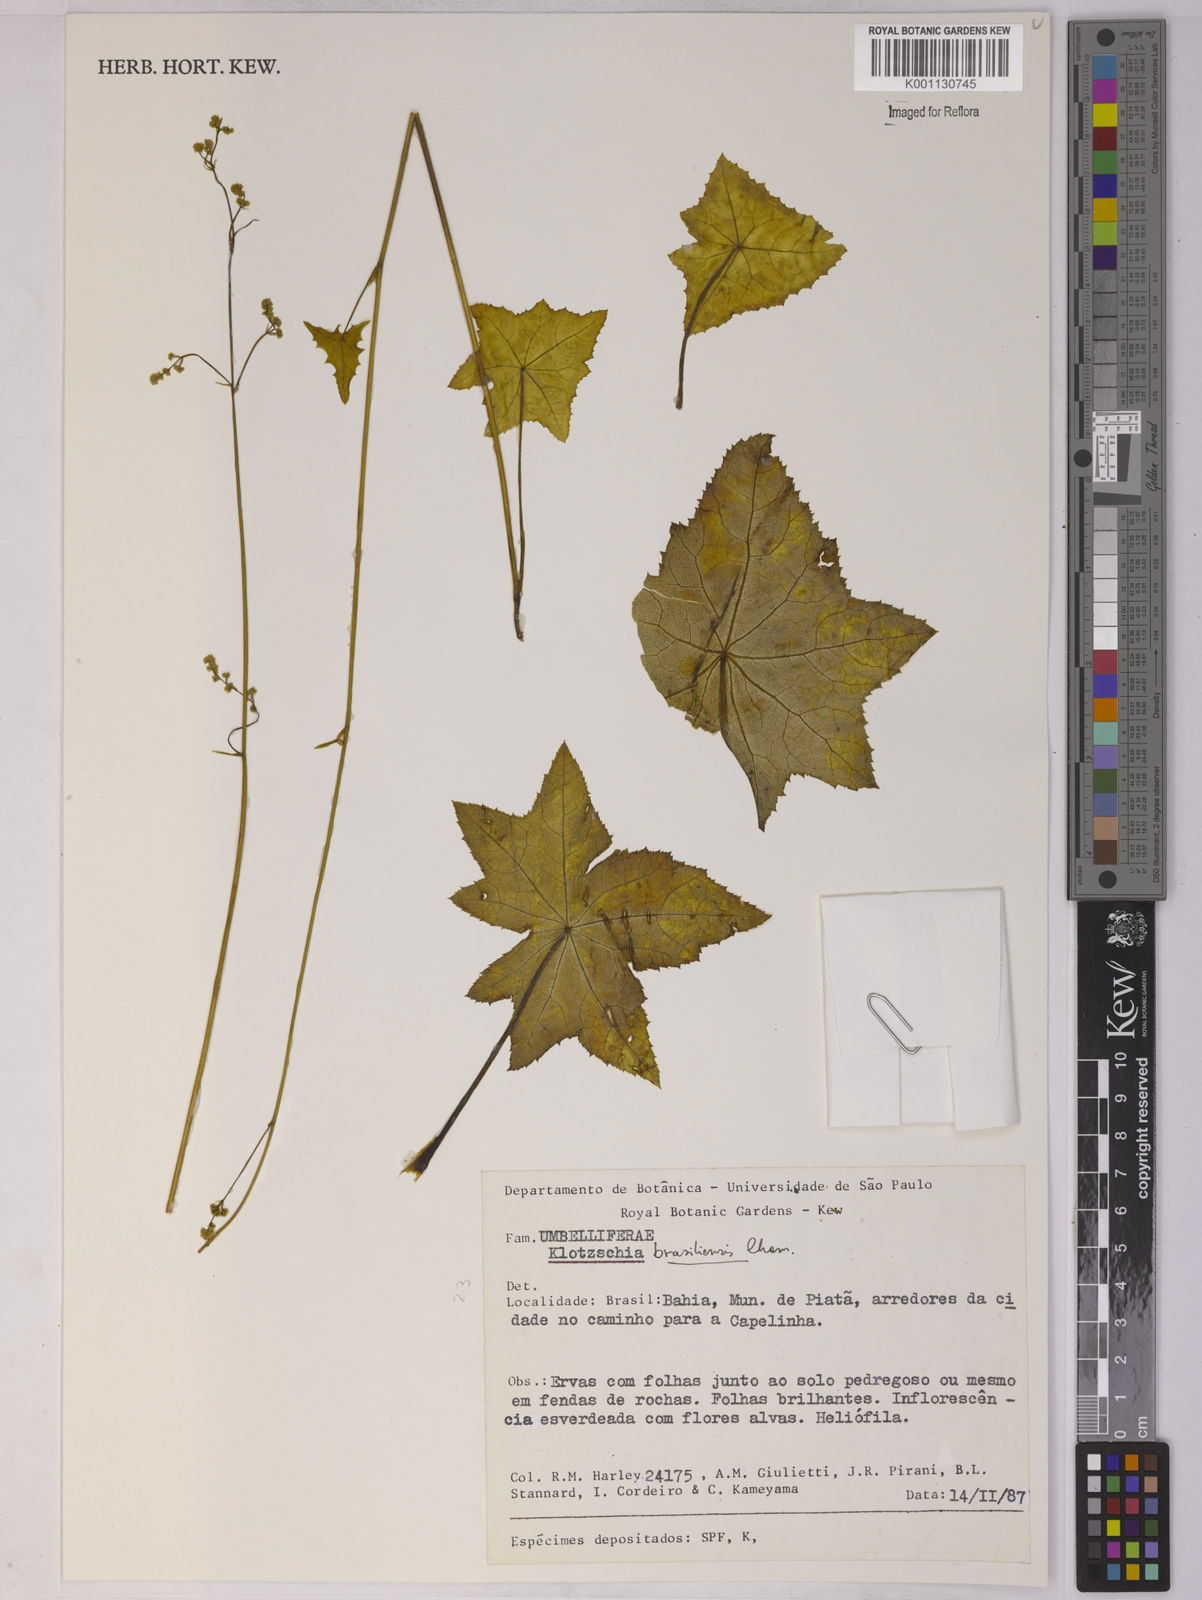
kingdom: Plantae
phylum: Tracheophyta
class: Magnoliopsida
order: Apiales
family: Apiaceae
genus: Klotzschia
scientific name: Klotzschia brasiliensis
